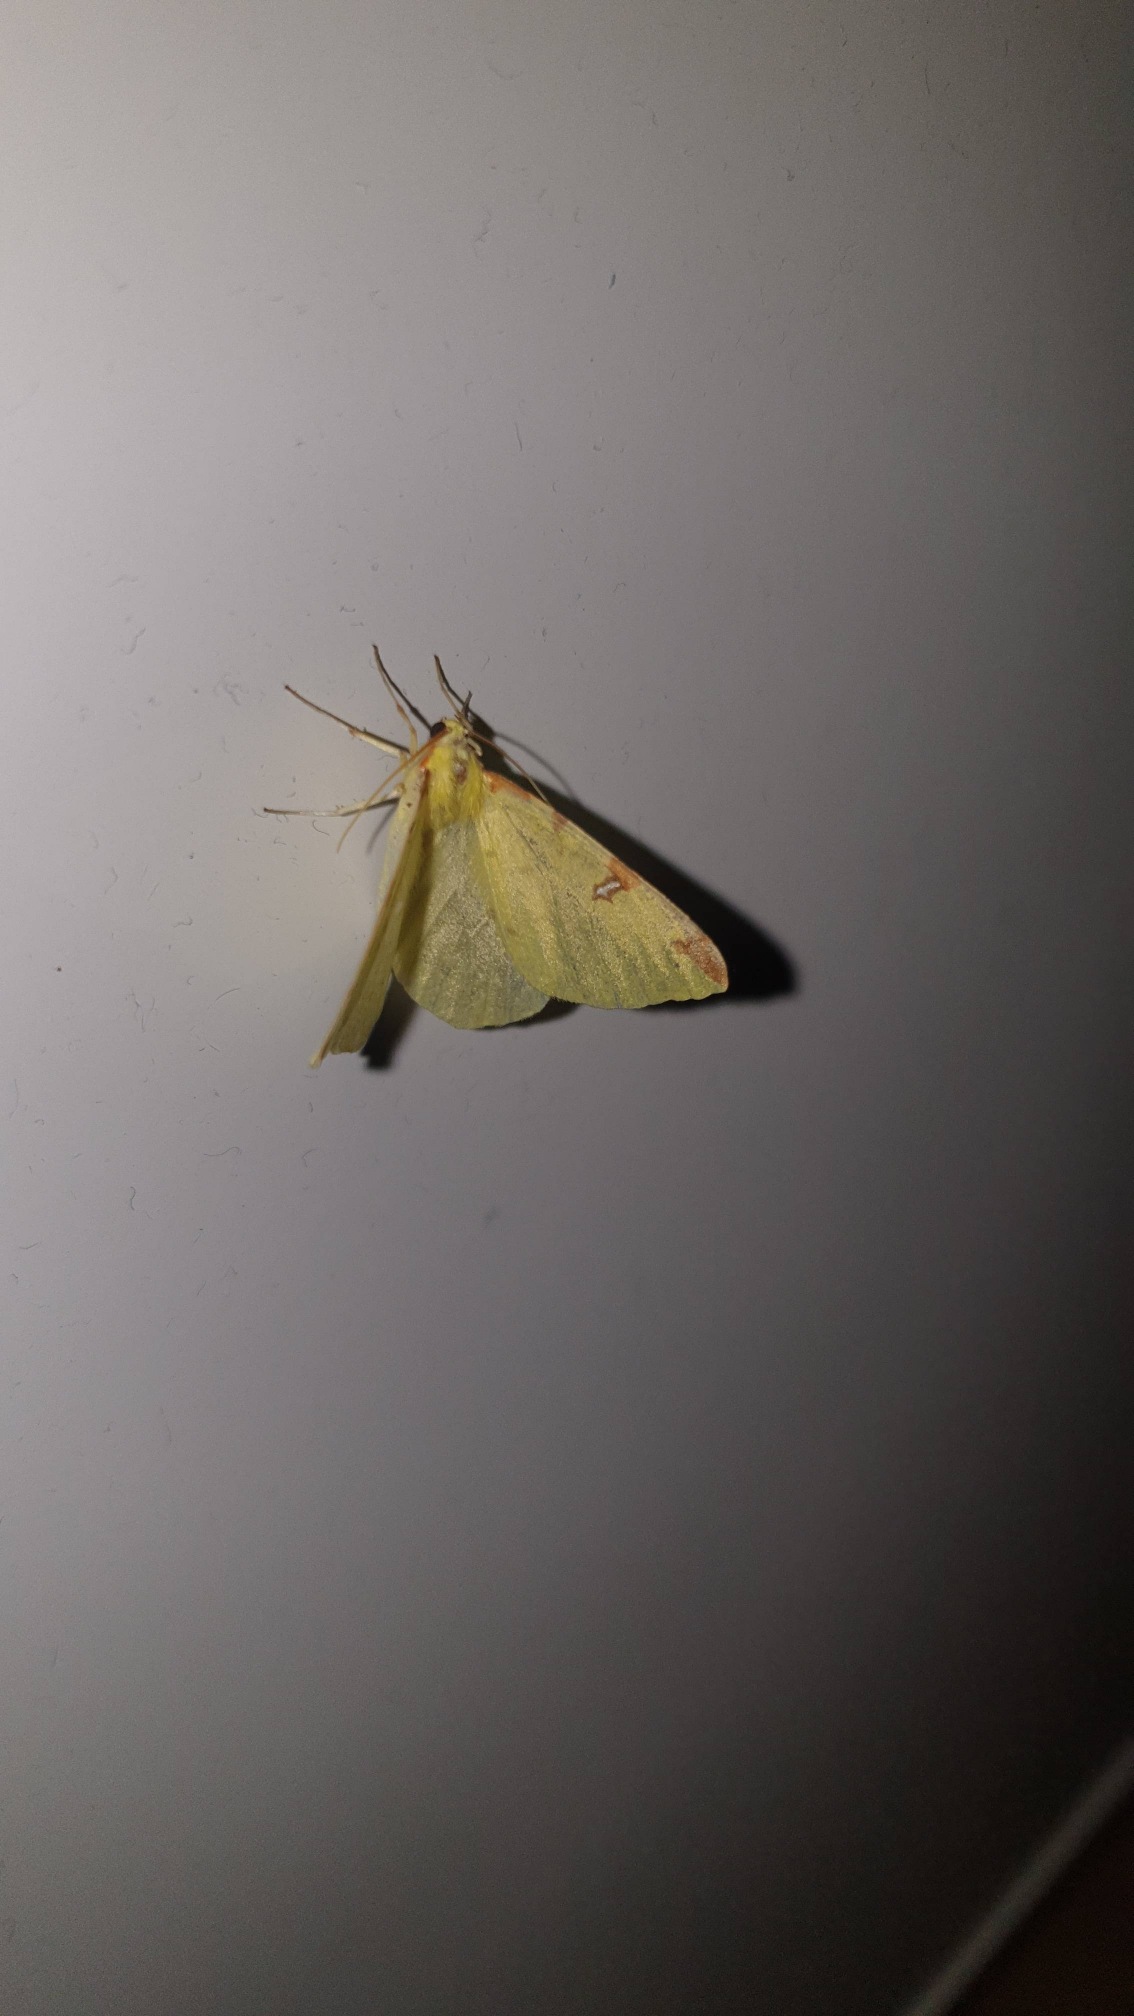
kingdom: Animalia
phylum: Arthropoda
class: Insecta
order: Lepidoptera
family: Geometridae
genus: Opisthograptis
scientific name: Opisthograptis luteolata
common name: Citronmåler
